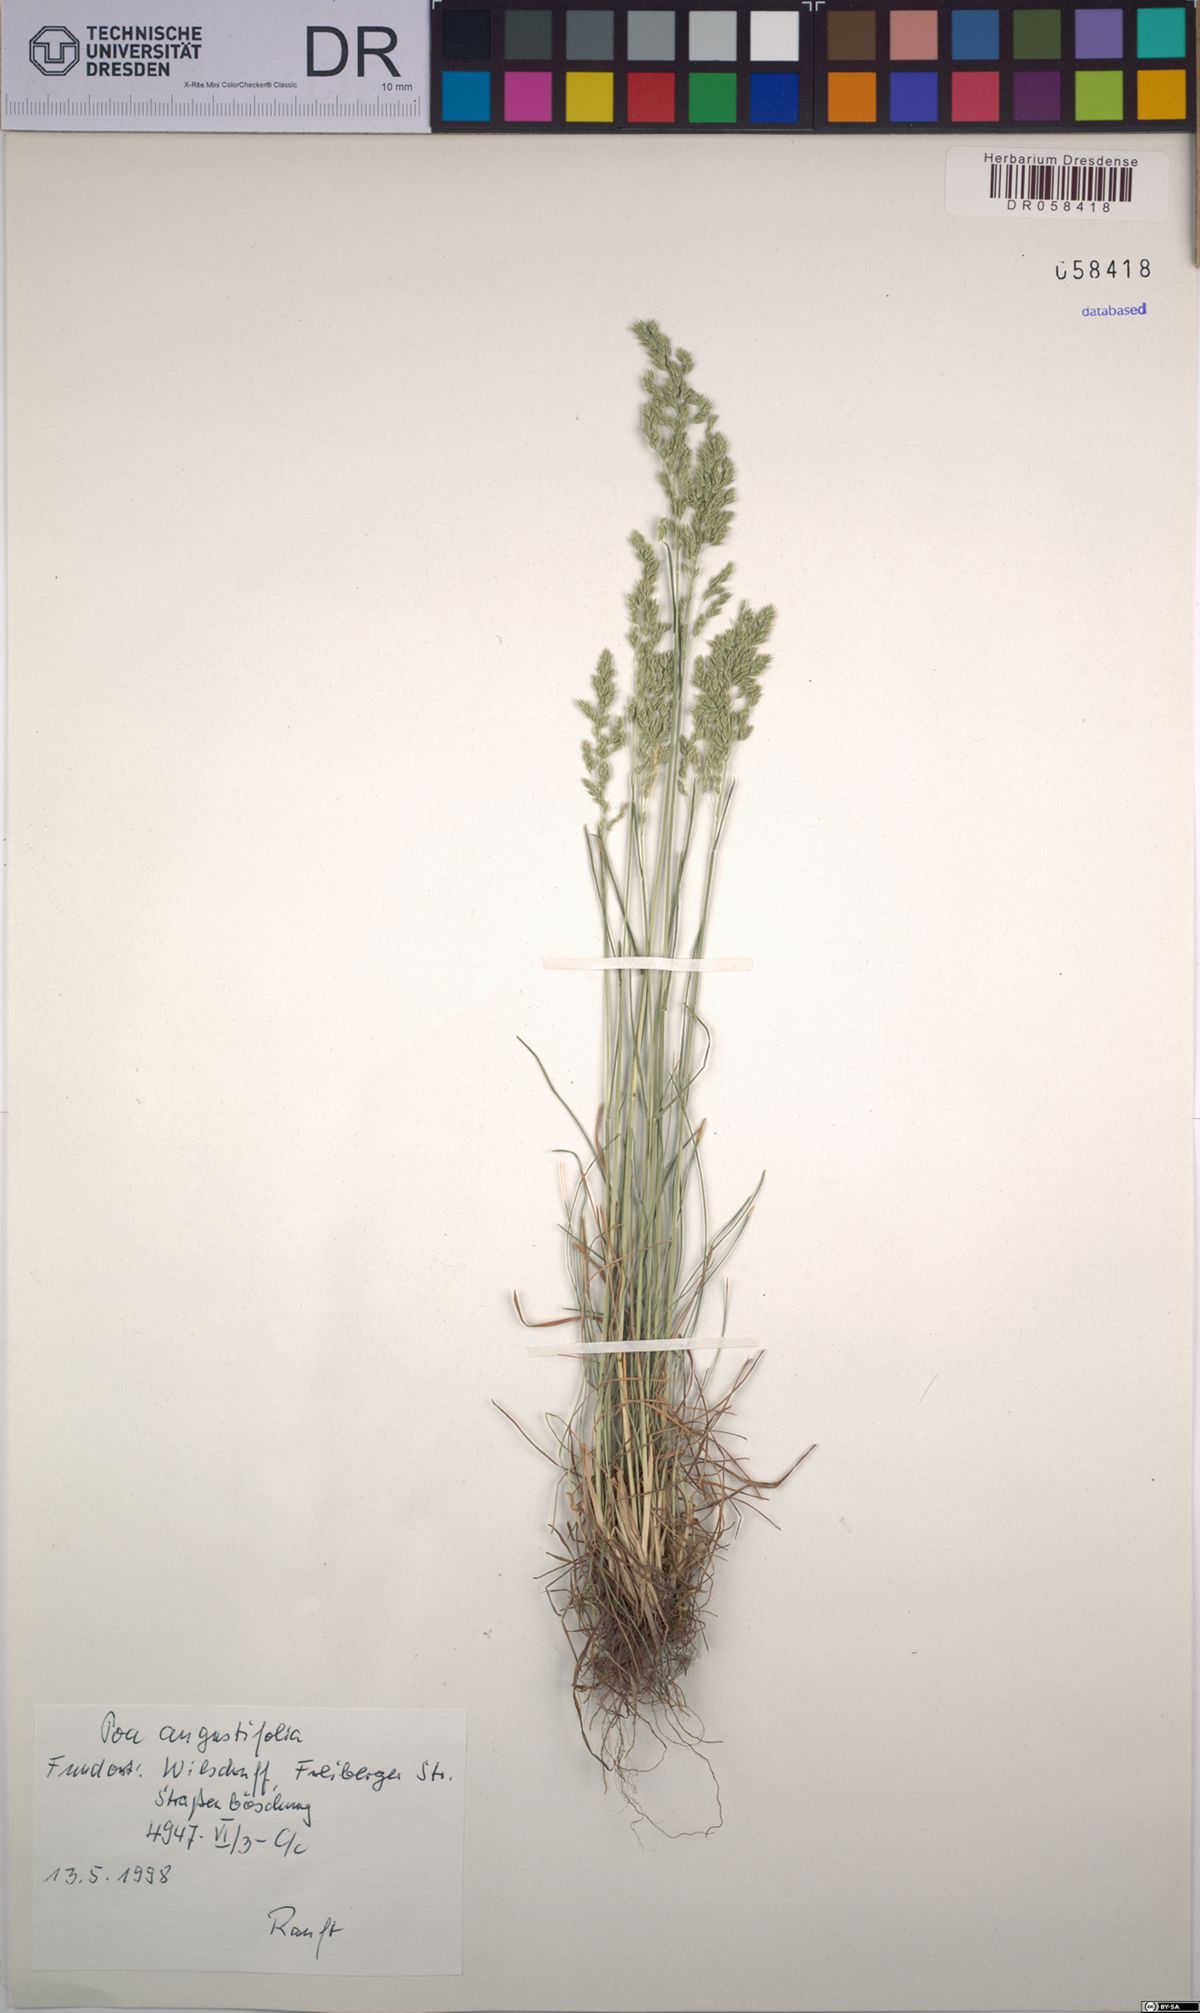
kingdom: Plantae
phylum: Tracheophyta
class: Liliopsida
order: Poales
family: Poaceae
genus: Poa
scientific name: Poa angustifolia
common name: Narrow-leaved meadow-grass
